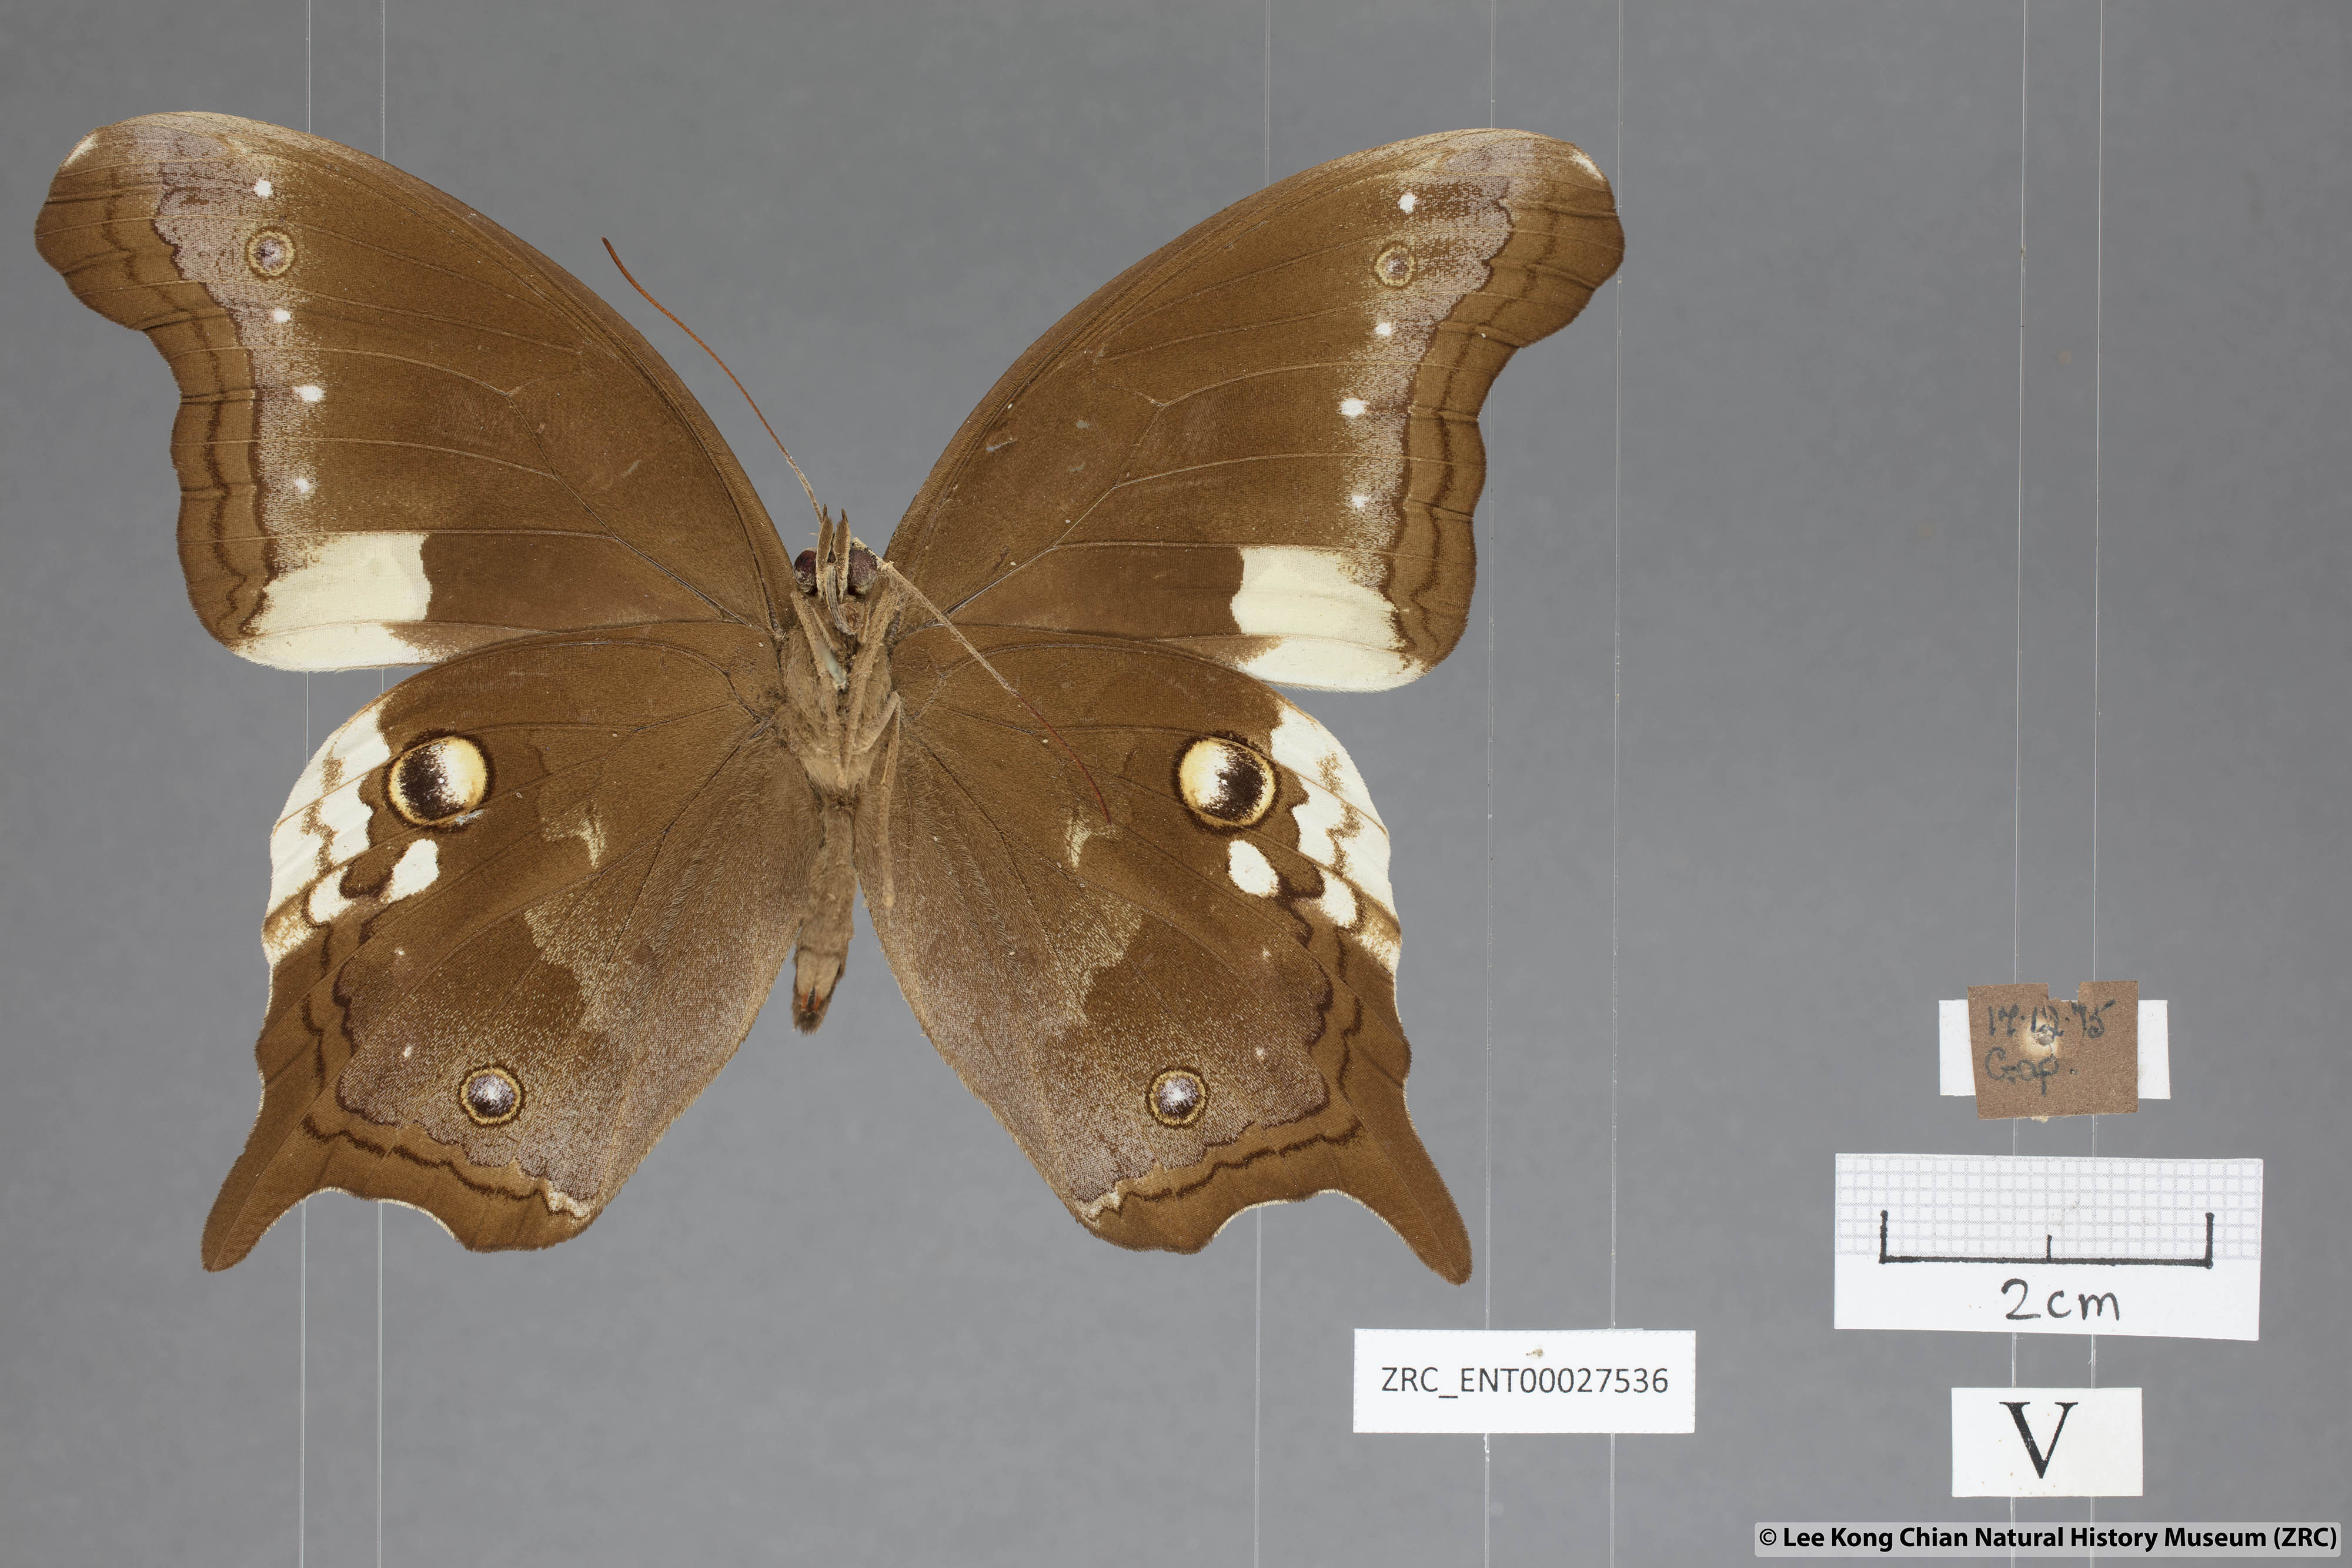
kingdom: Animalia
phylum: Arthropoda
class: Insecta
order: Lepidoptera
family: Nymphalidae
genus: Neorina
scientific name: Neorina lowii
